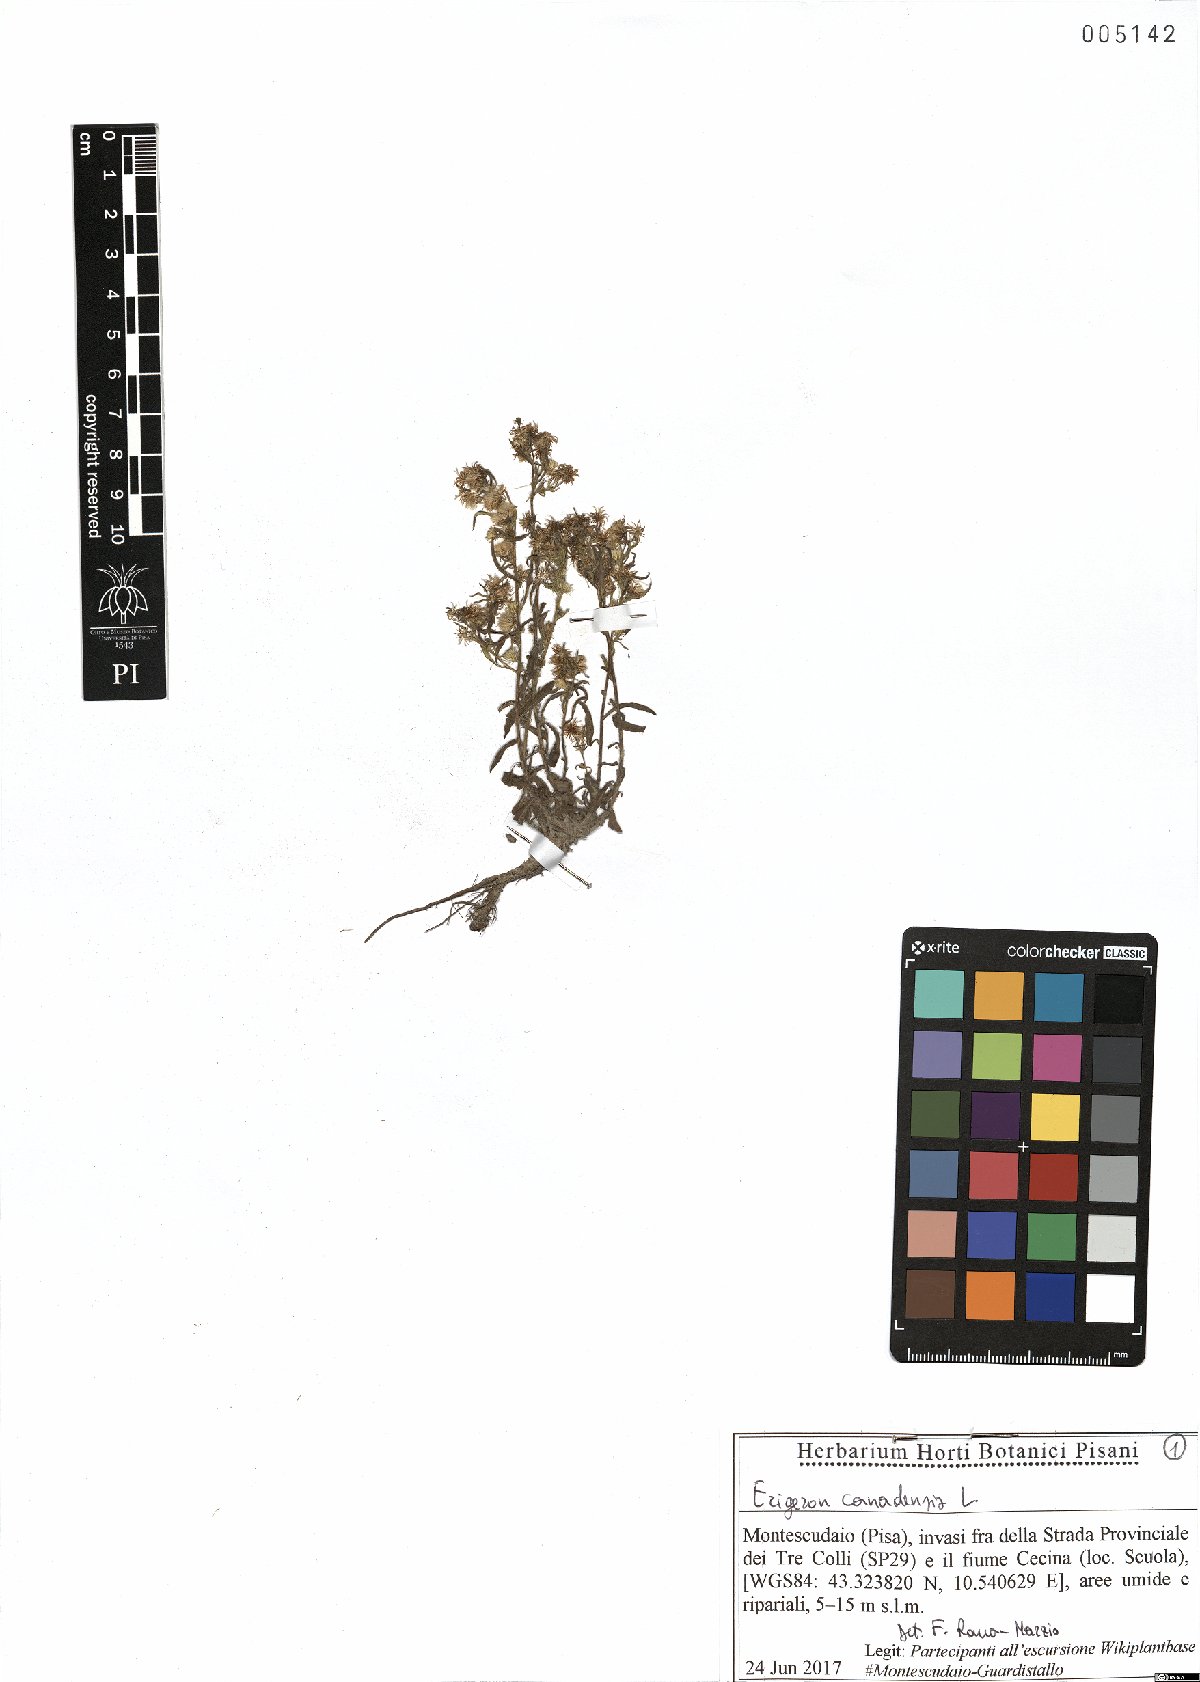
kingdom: Plantae
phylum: Tracheophyta
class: Magnoliopsida
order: Asterales
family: Asteraceae
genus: Erigeron
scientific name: Erigeron canadensis
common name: Canadian fleabane
